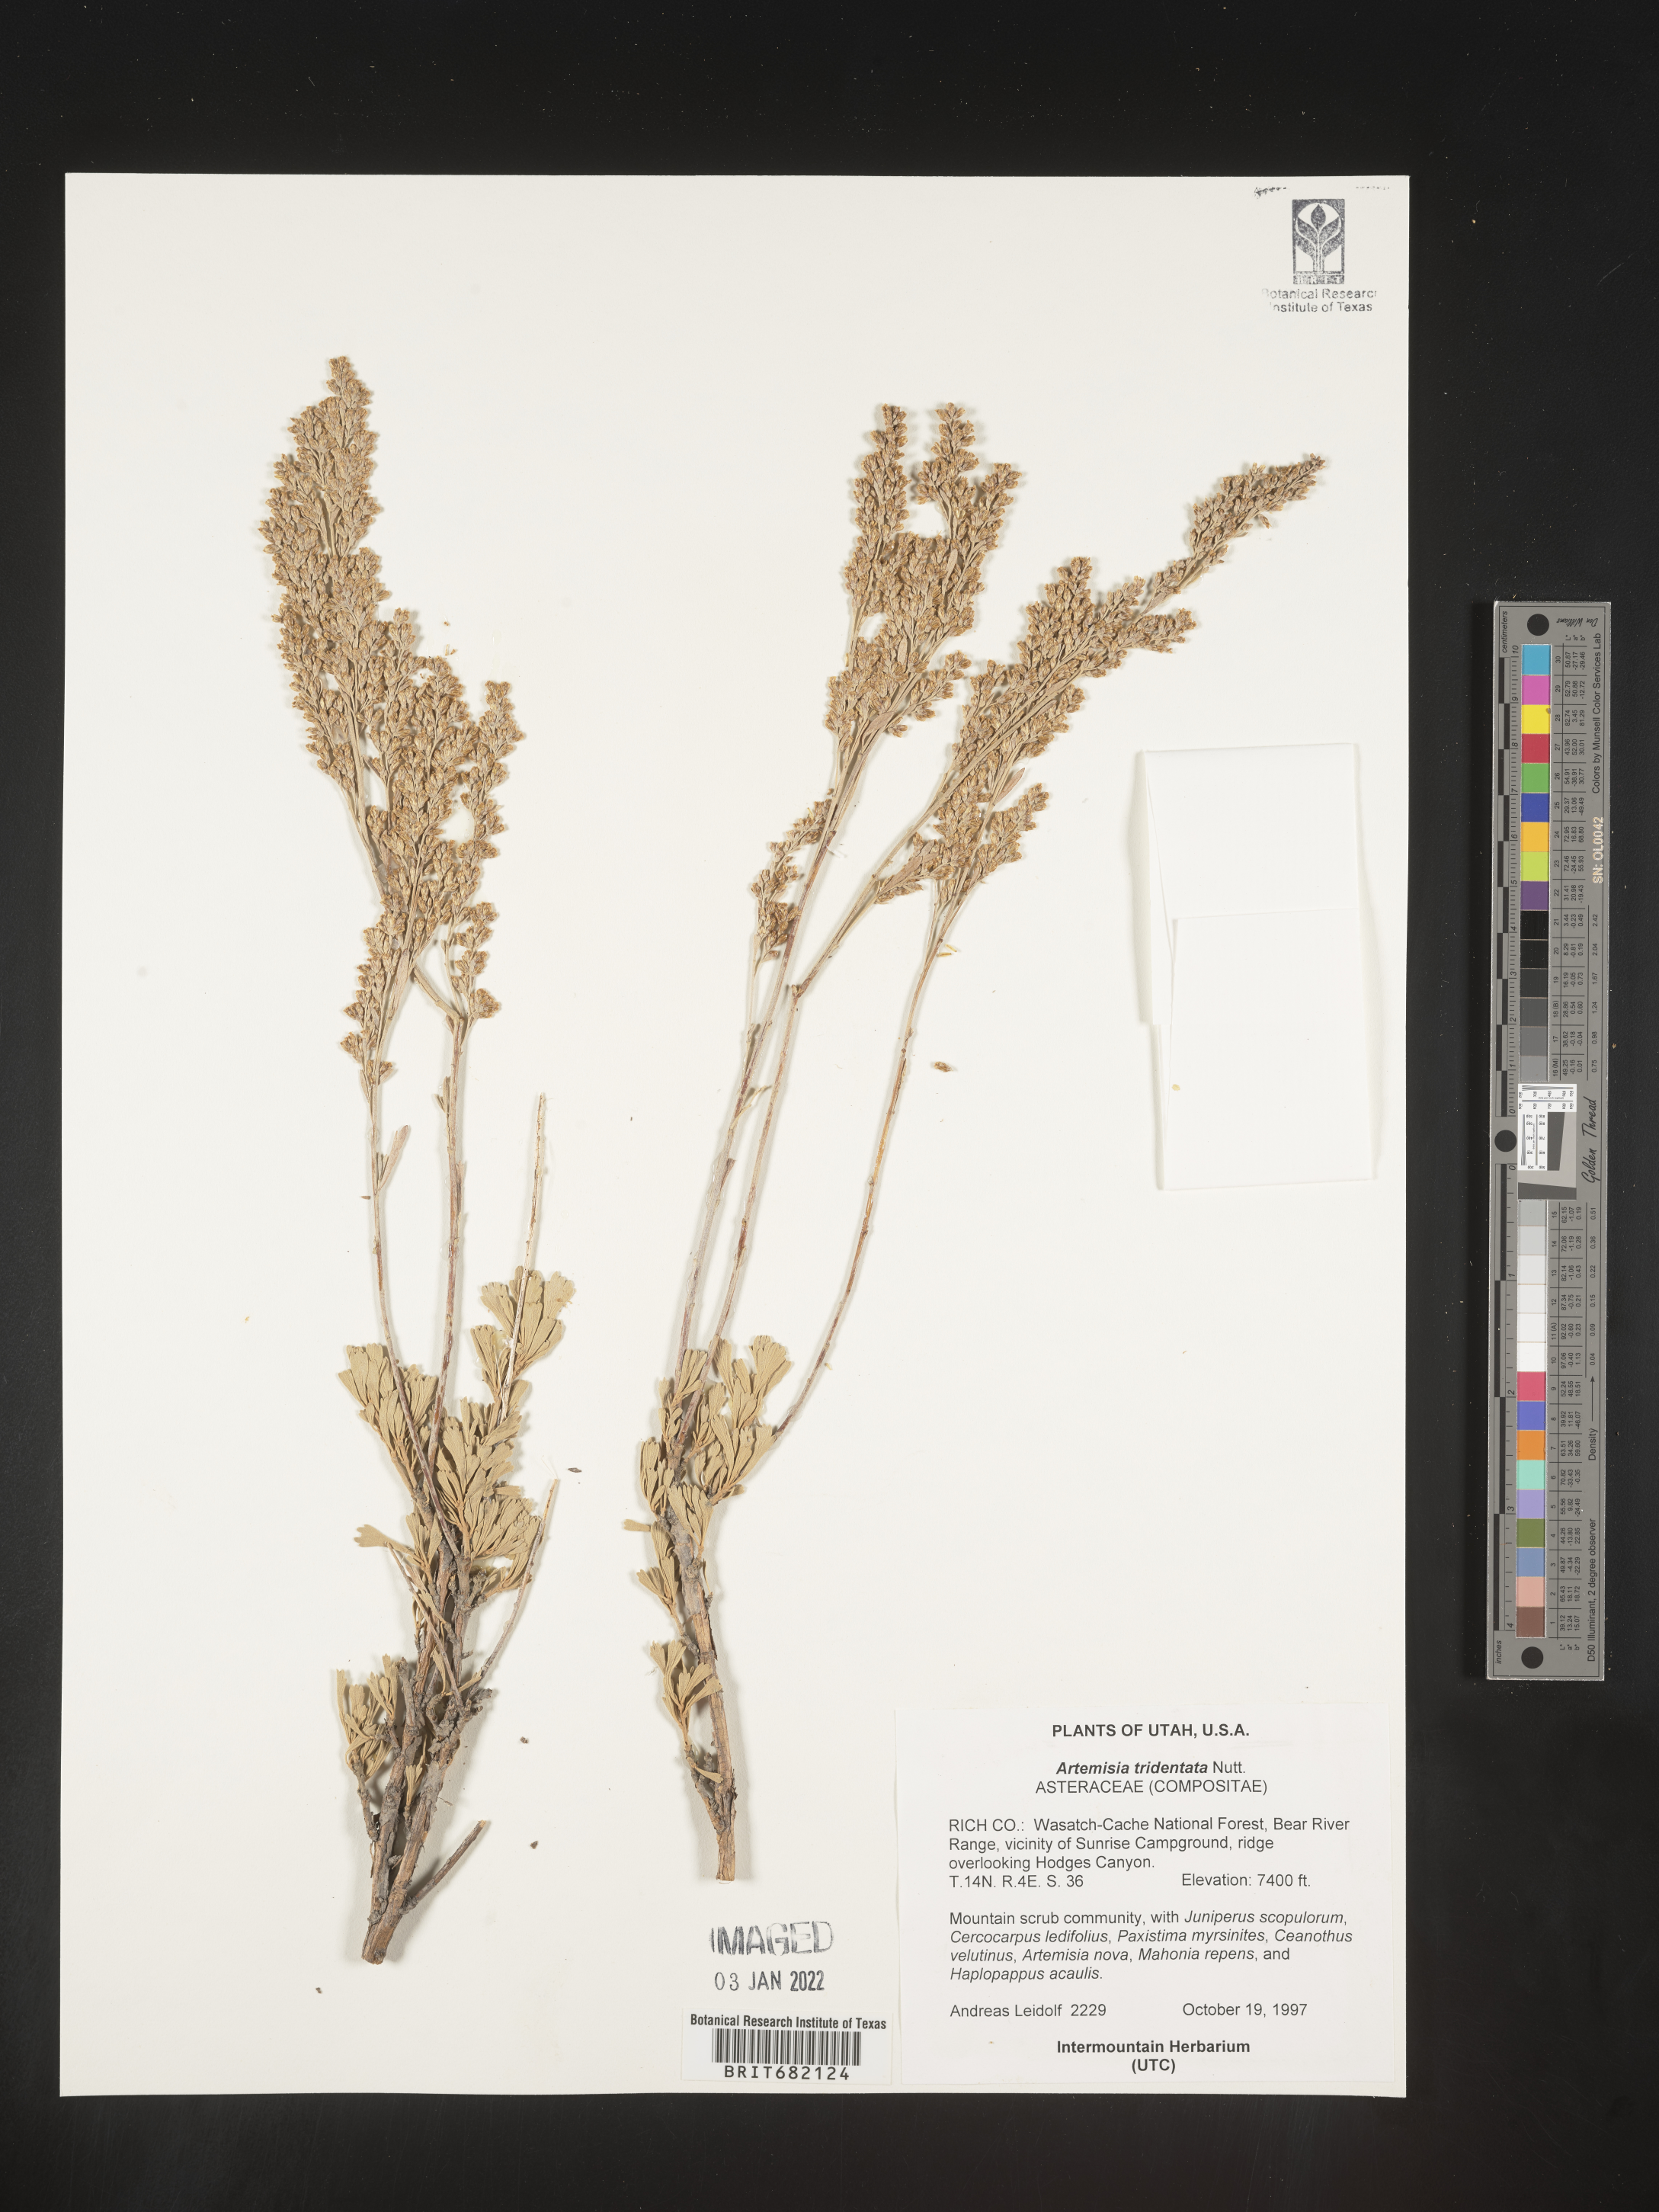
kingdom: Plantae
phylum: Tracheophyta
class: Magnoliopsida
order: Asterales
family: Asteraceae
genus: Artemisia
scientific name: Artemisia tridentata
